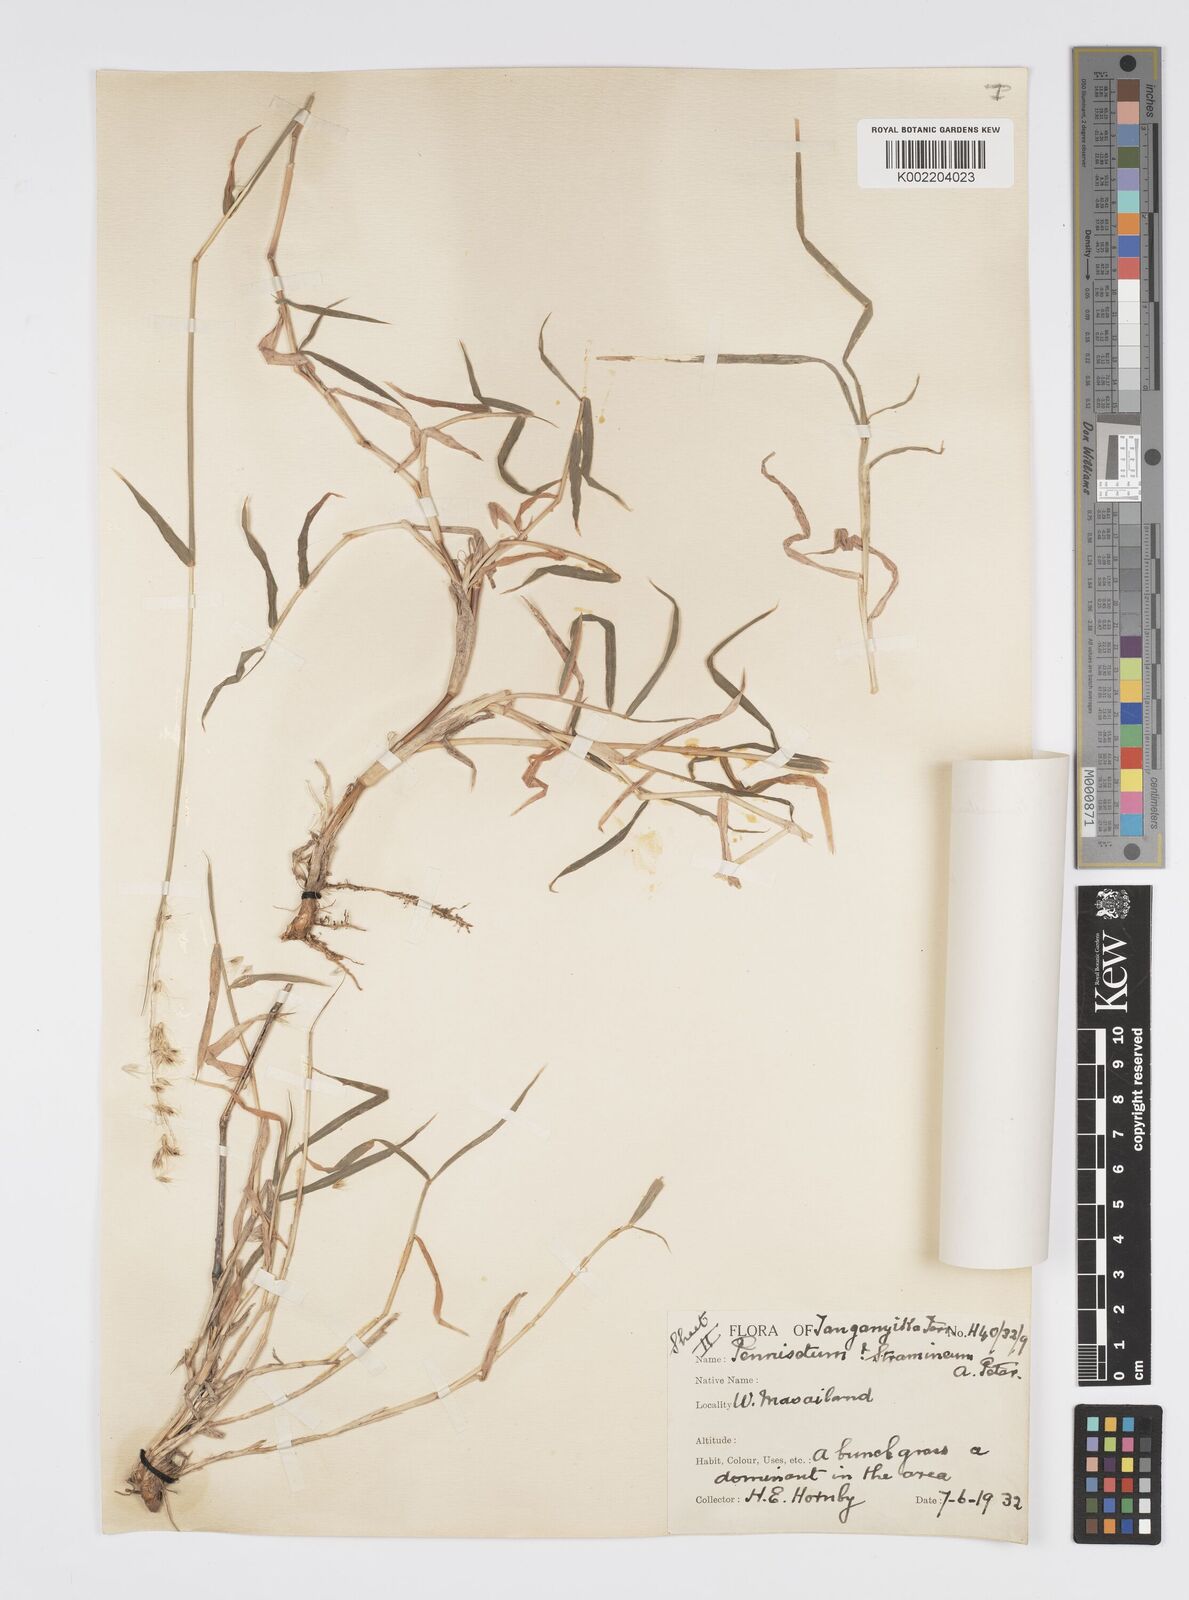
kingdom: Plantae
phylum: Tracheophyta
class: Liliopsida
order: Poales
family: Poaceae
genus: Cenchrus
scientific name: Cenchrus stramineus
